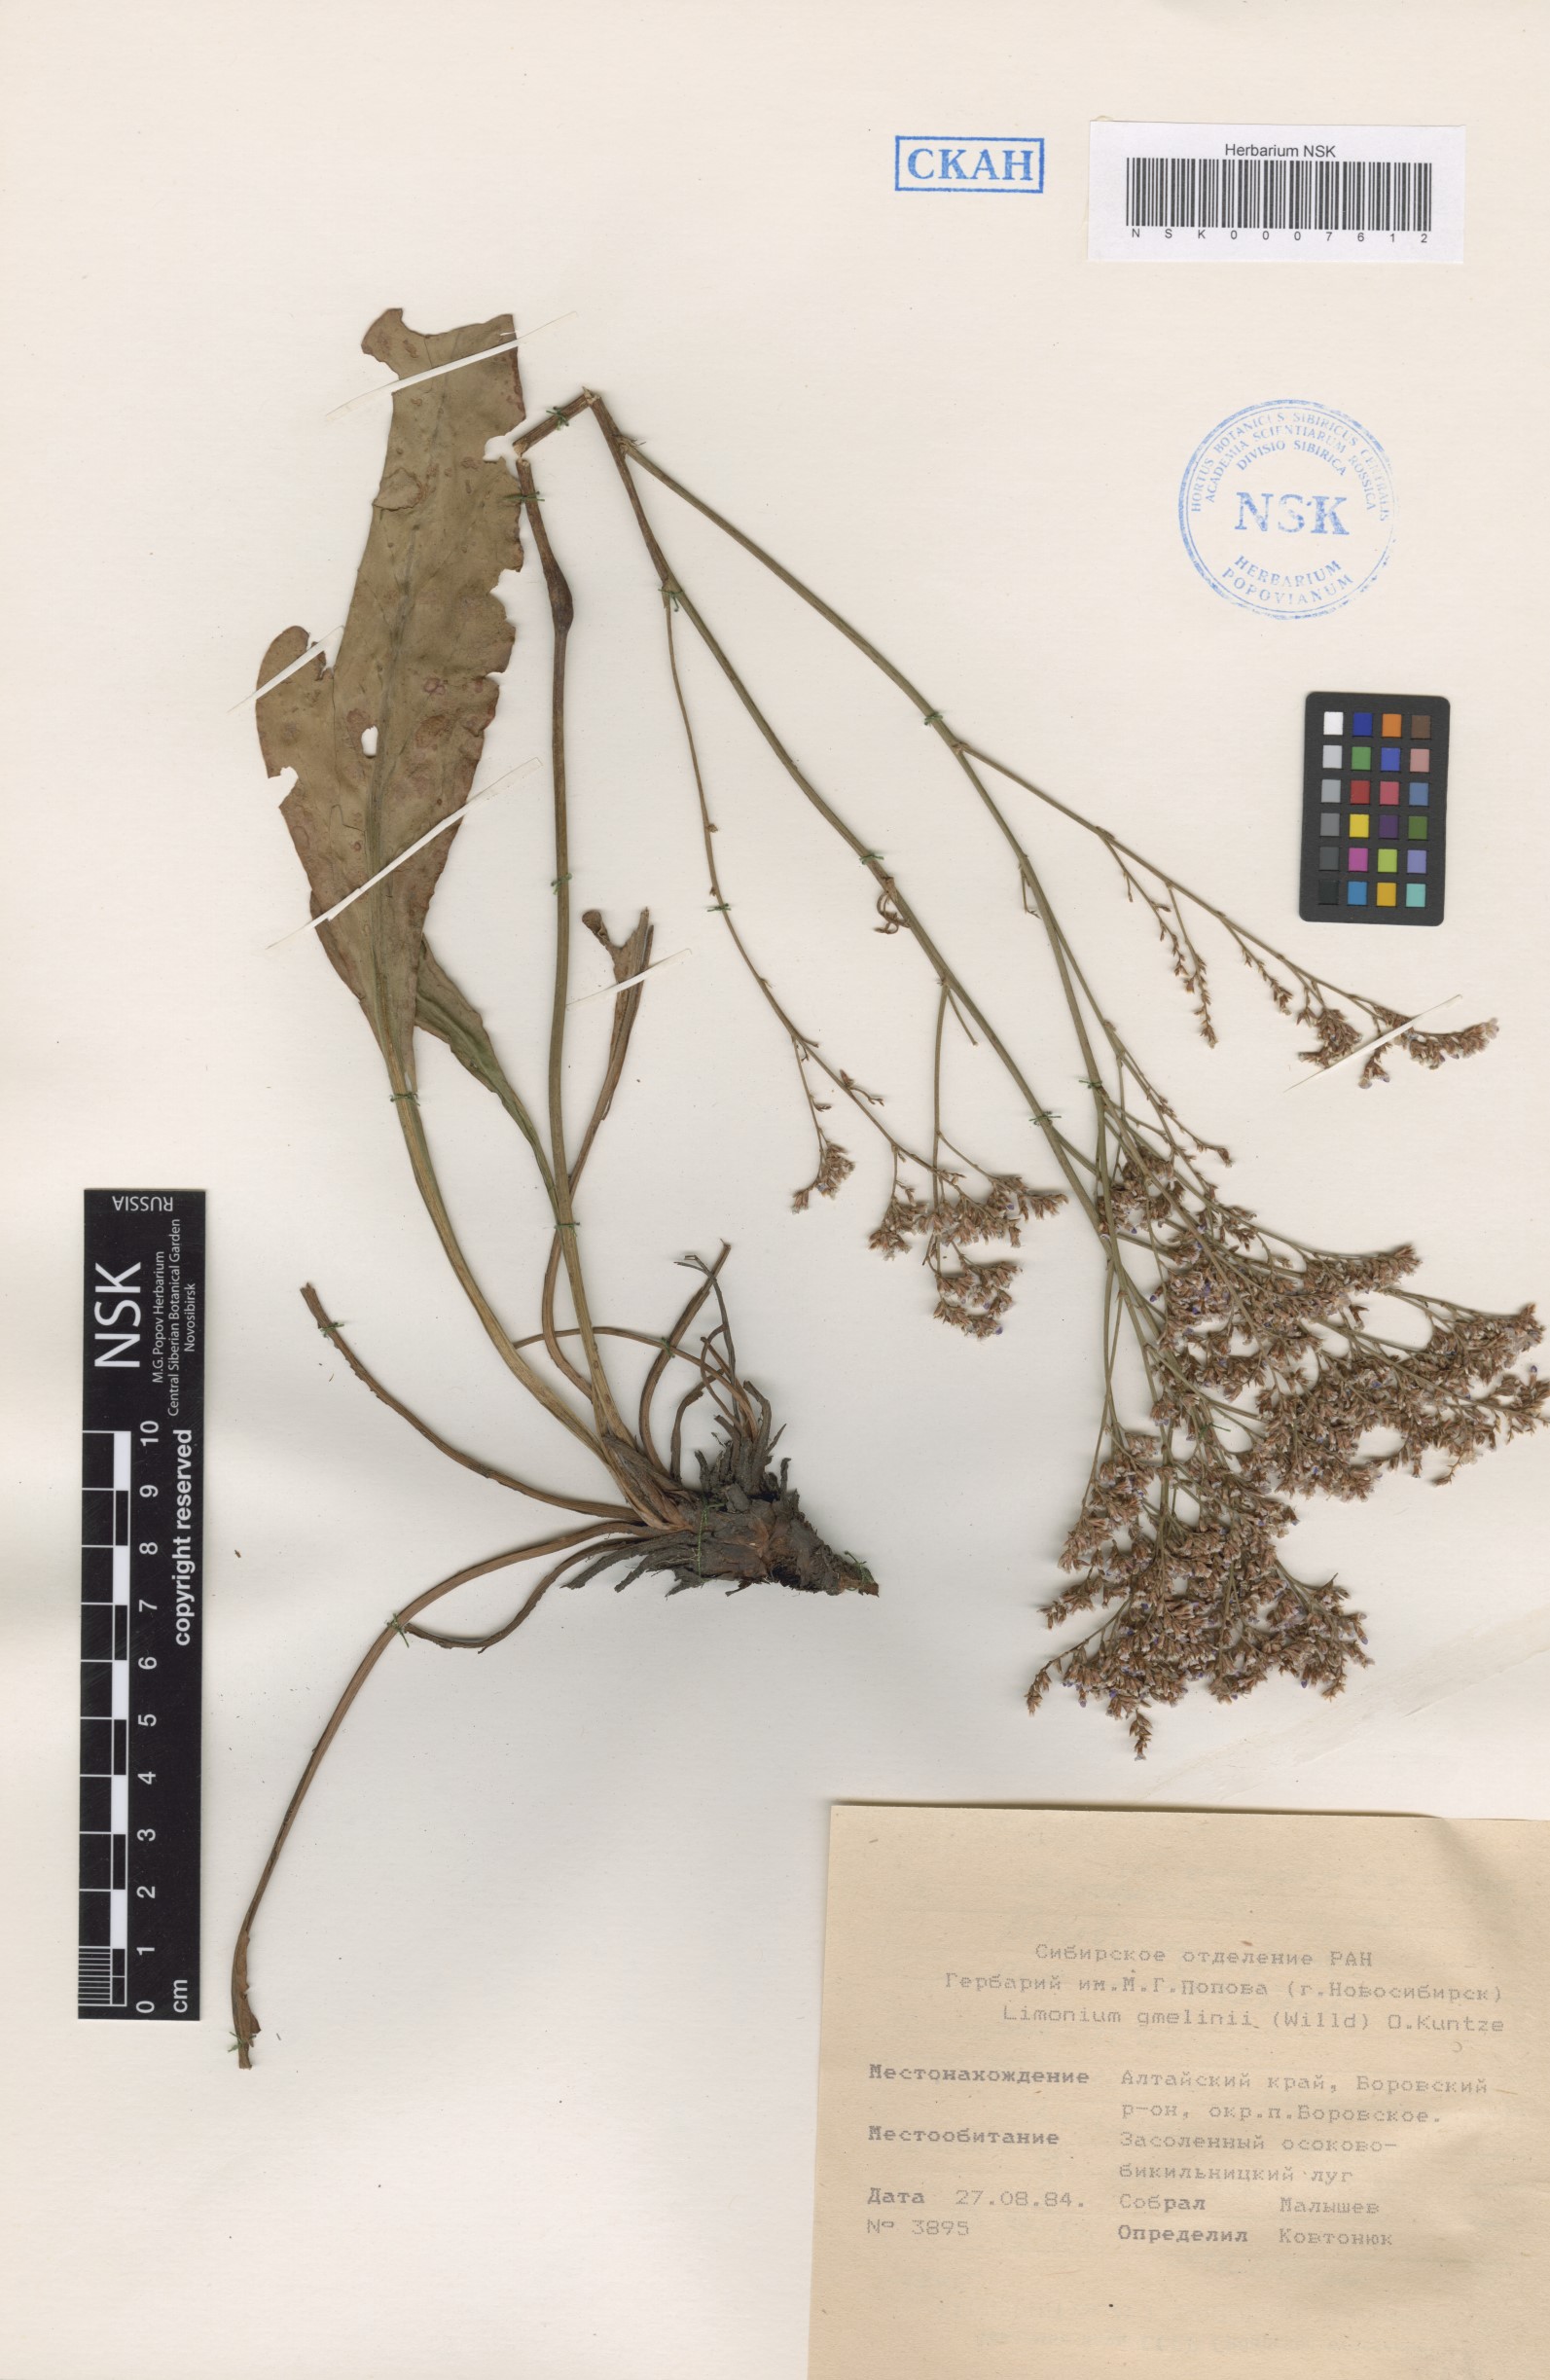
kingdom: Plantae
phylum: Tracheophyta
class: Magnoliopsida
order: Caryophyllales
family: Plumbaginaceae
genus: Limonium
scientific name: Limonium gmelini
